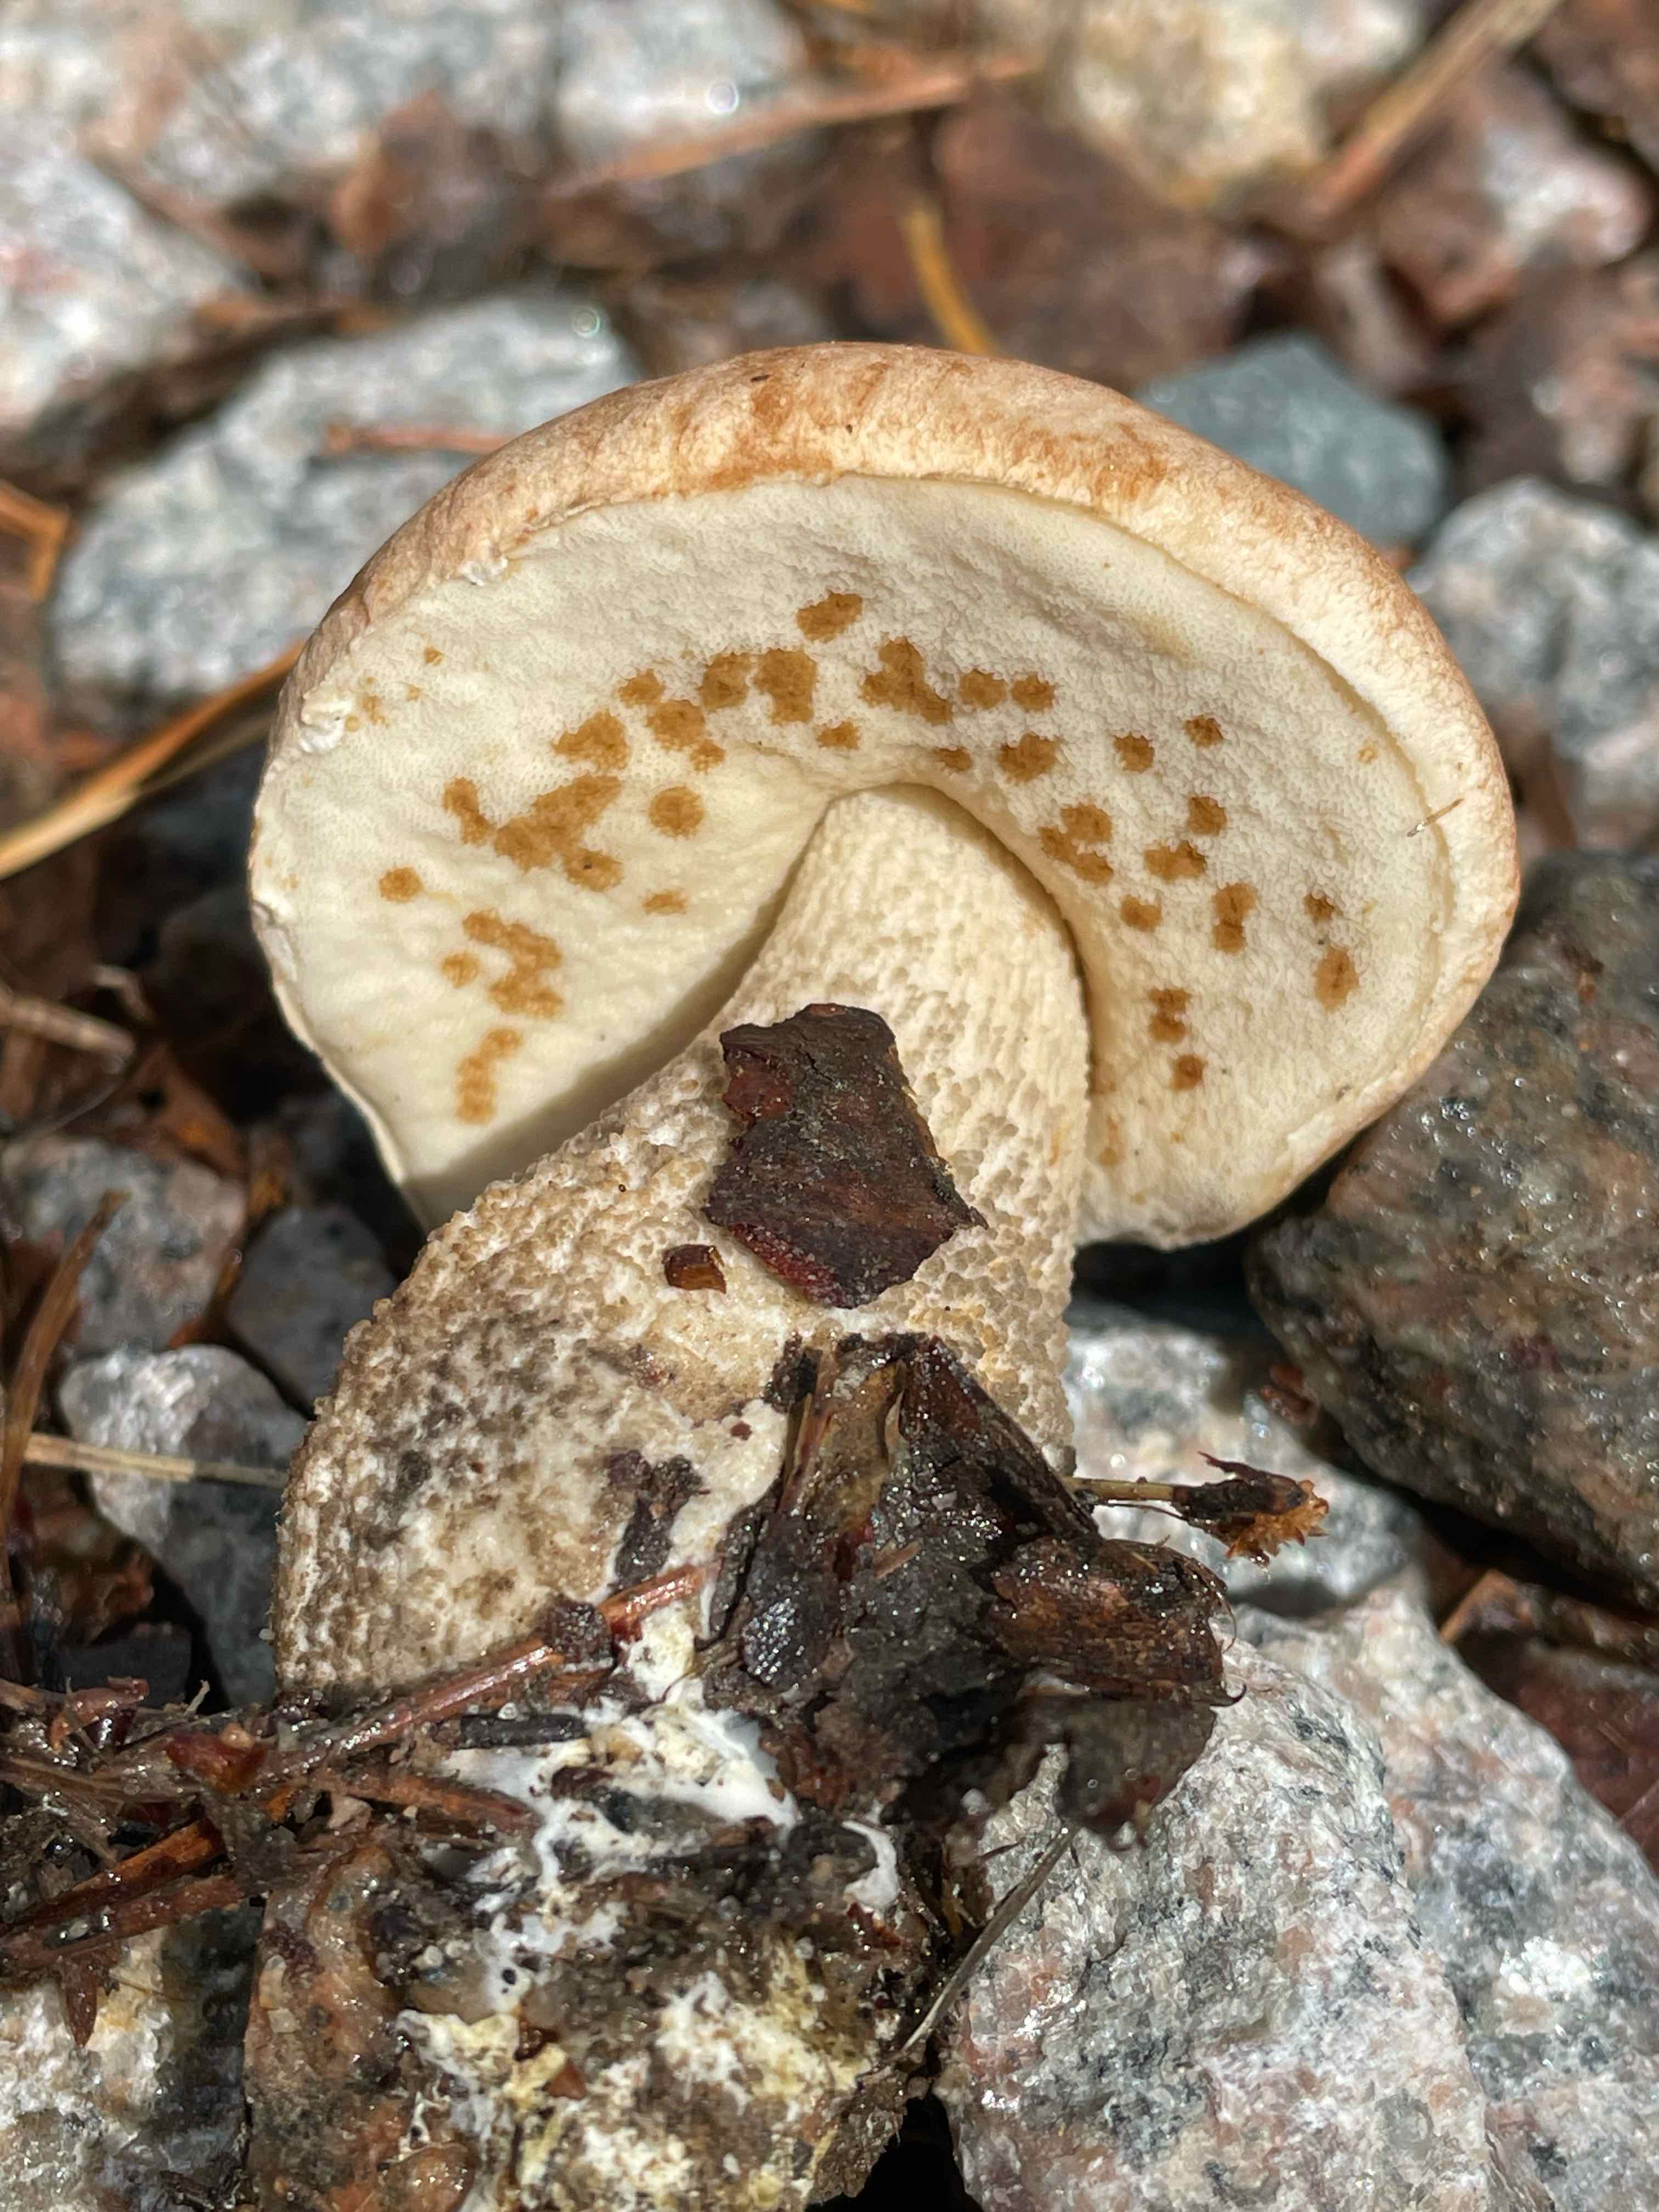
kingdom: Fungi
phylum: Basidiomycota
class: Agaricomycetes
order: Boletales
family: Boletaceae
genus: Leccinum
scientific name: Leccinum scabrum
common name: brun skælrørhat
